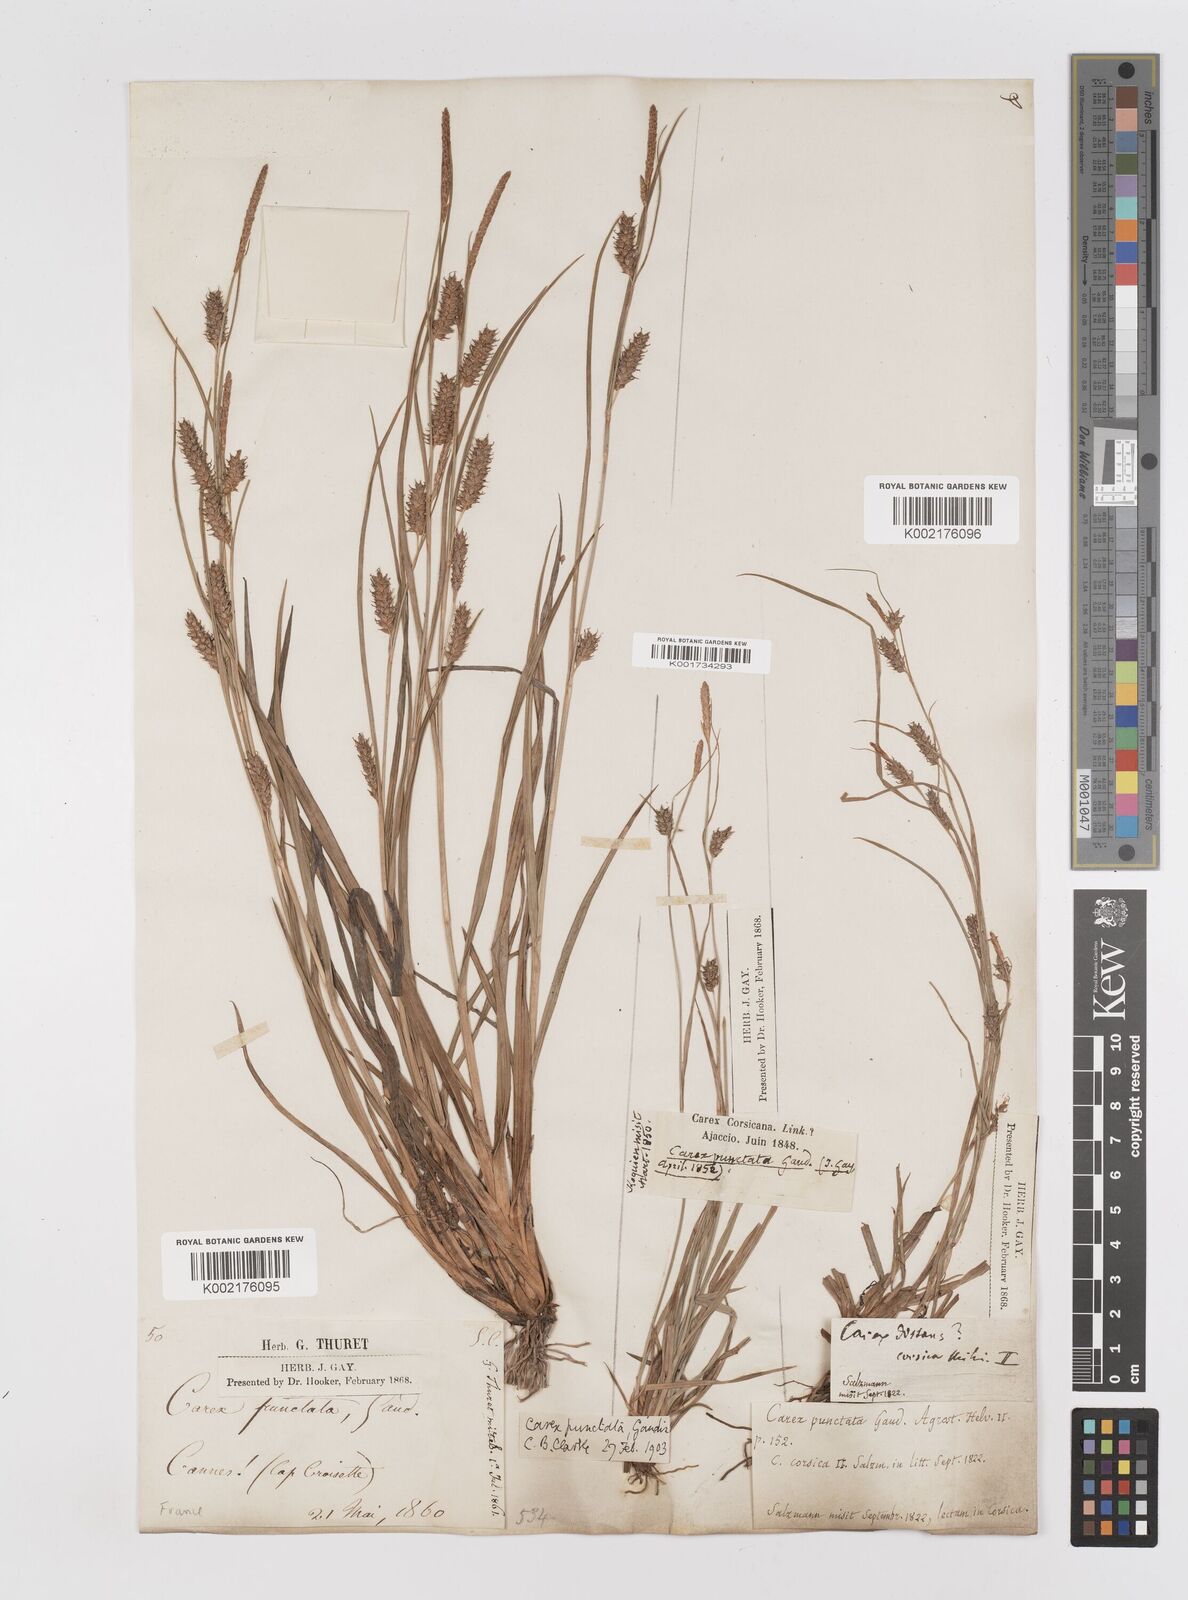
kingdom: Plantae
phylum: Tracheophyta
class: Liliopsida
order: Poales
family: Cyperaceae
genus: Carex
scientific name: Carex punctata
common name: Dotted sedge
